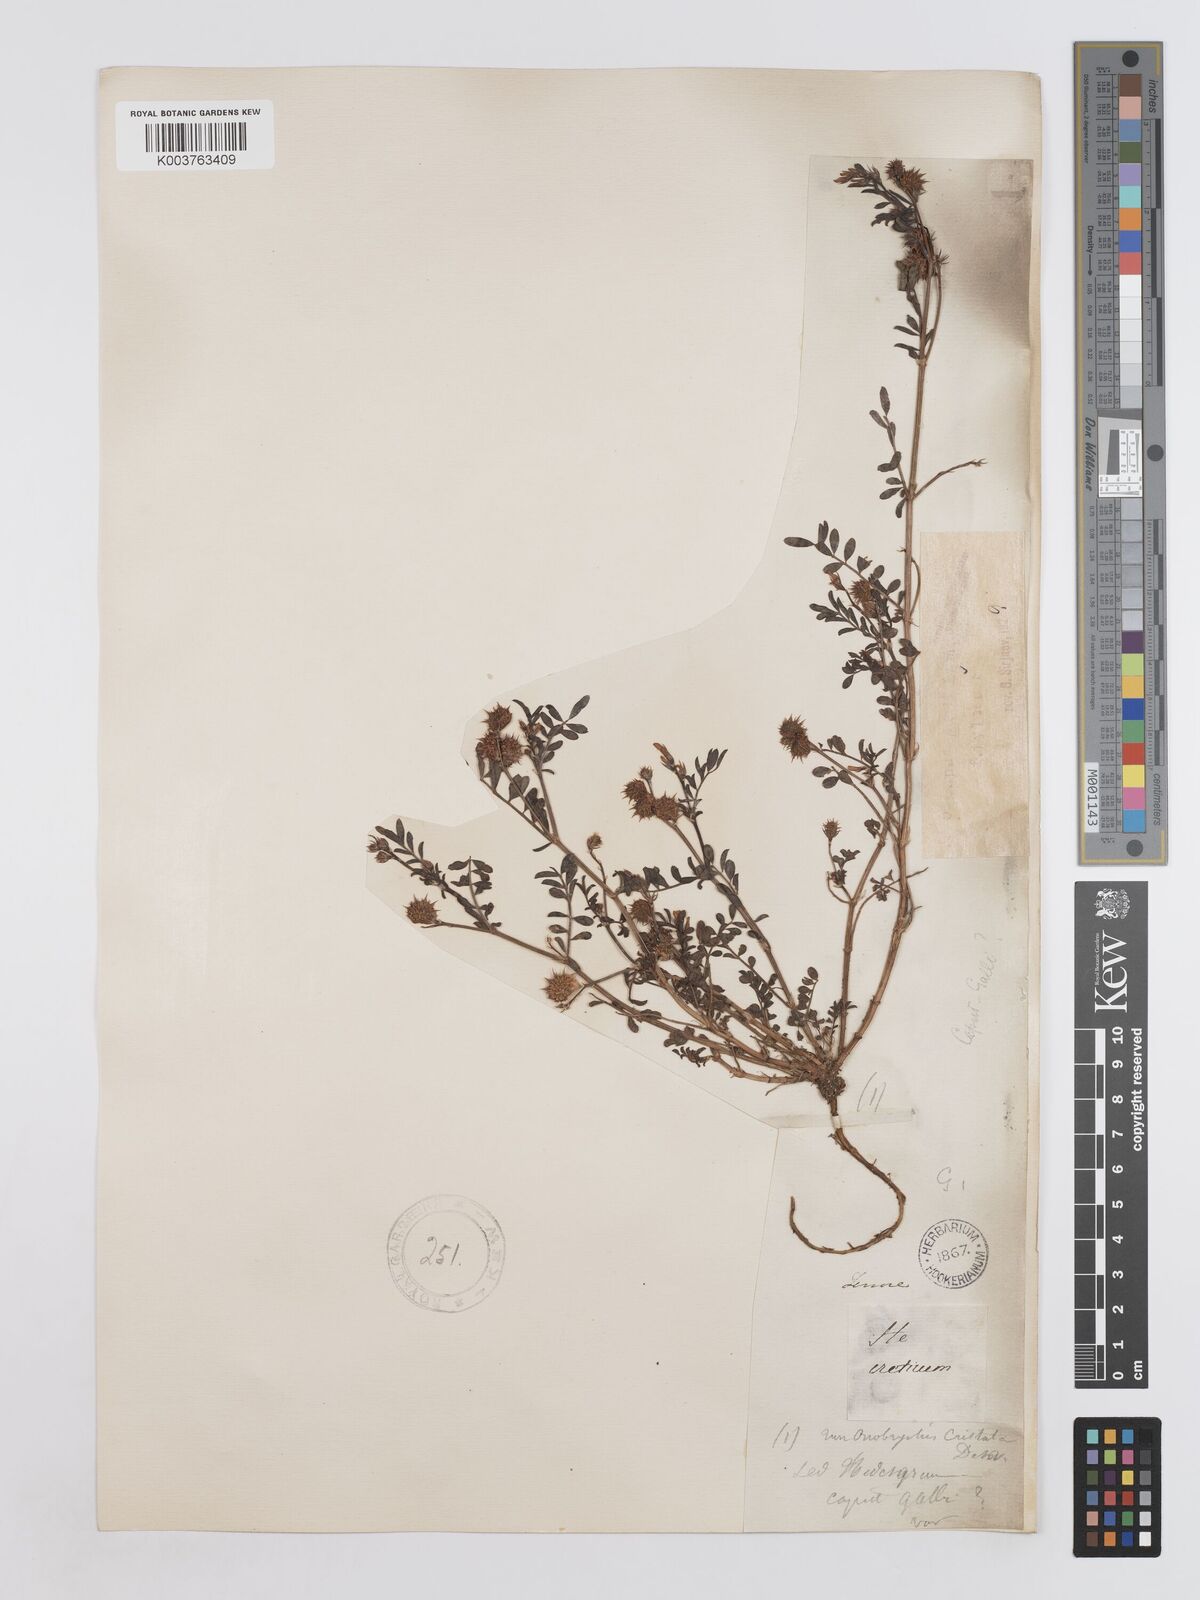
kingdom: Plantae
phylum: Tracheophyta
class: Magnoliopsida
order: Fabales
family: Fabaceae
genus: Onobrychis
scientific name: Onobrychis caput-galli
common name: Cockscomb sainfoin
